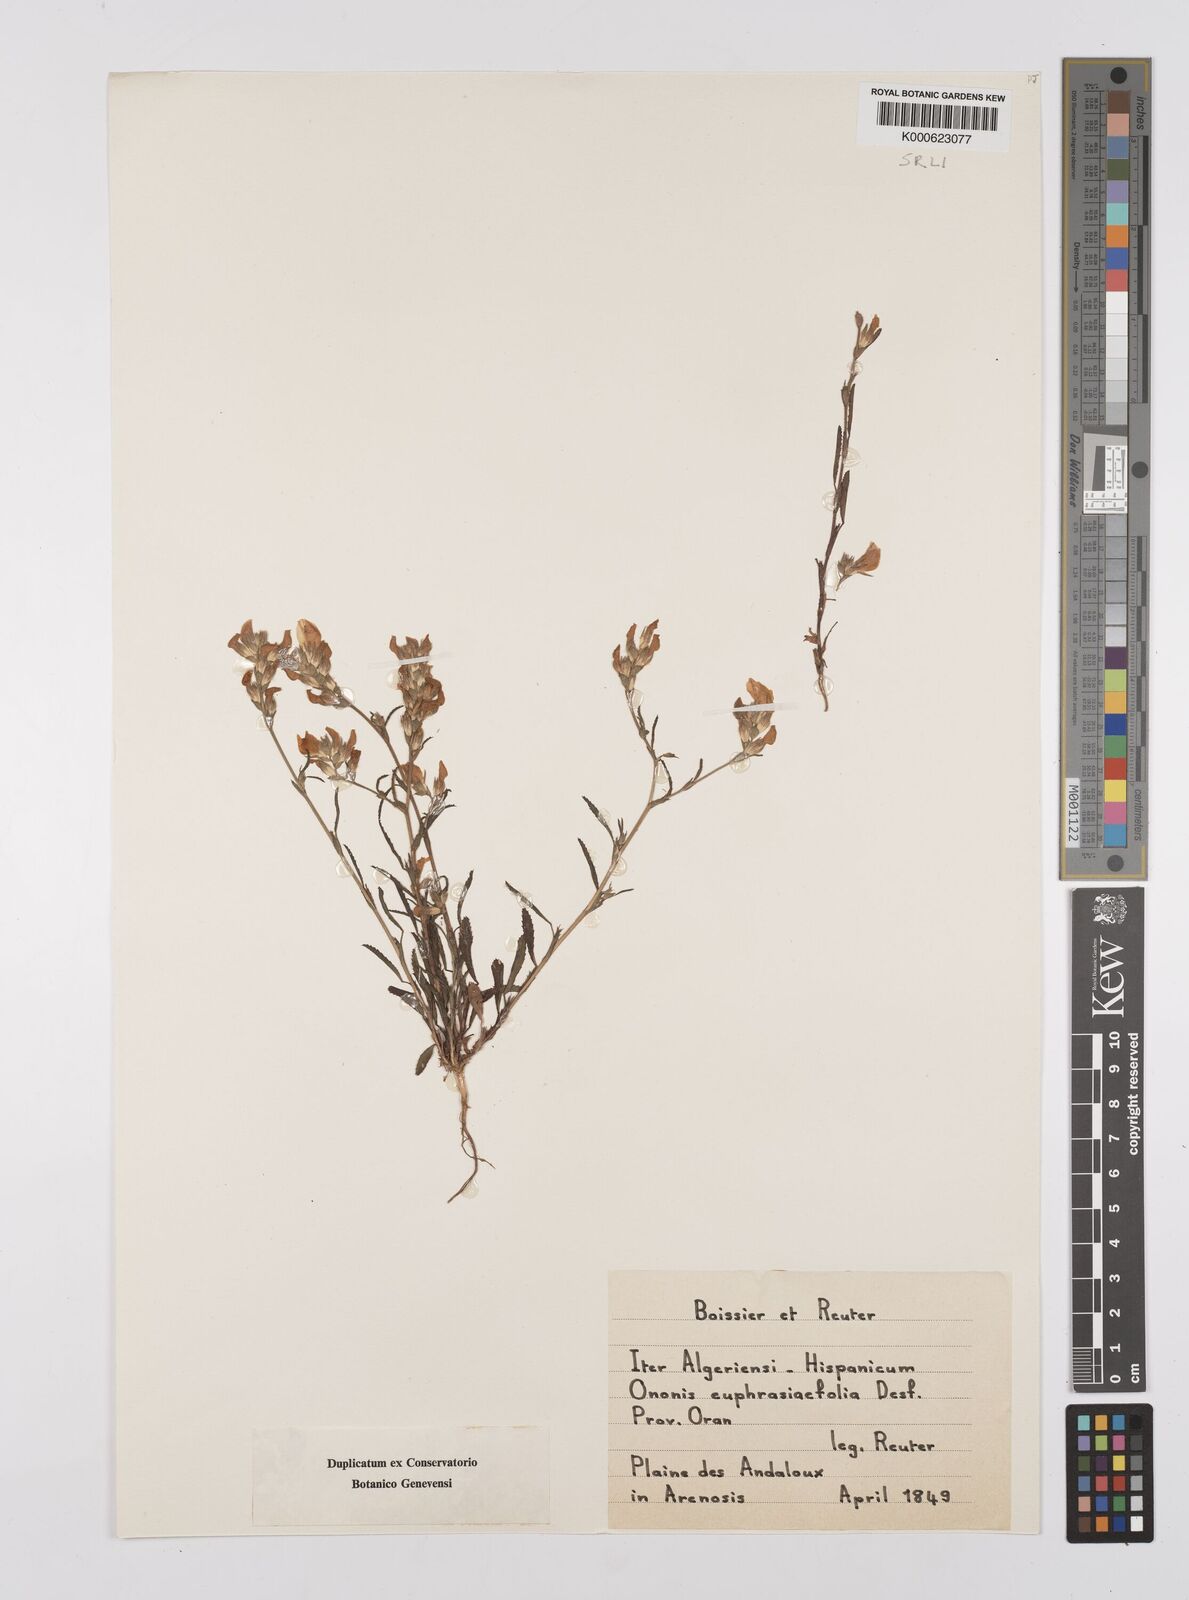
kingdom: Plantae
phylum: Tracheophyta
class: Magnoliopsida
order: Fabales
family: Fabaceae
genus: Ononis
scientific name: Ononis
